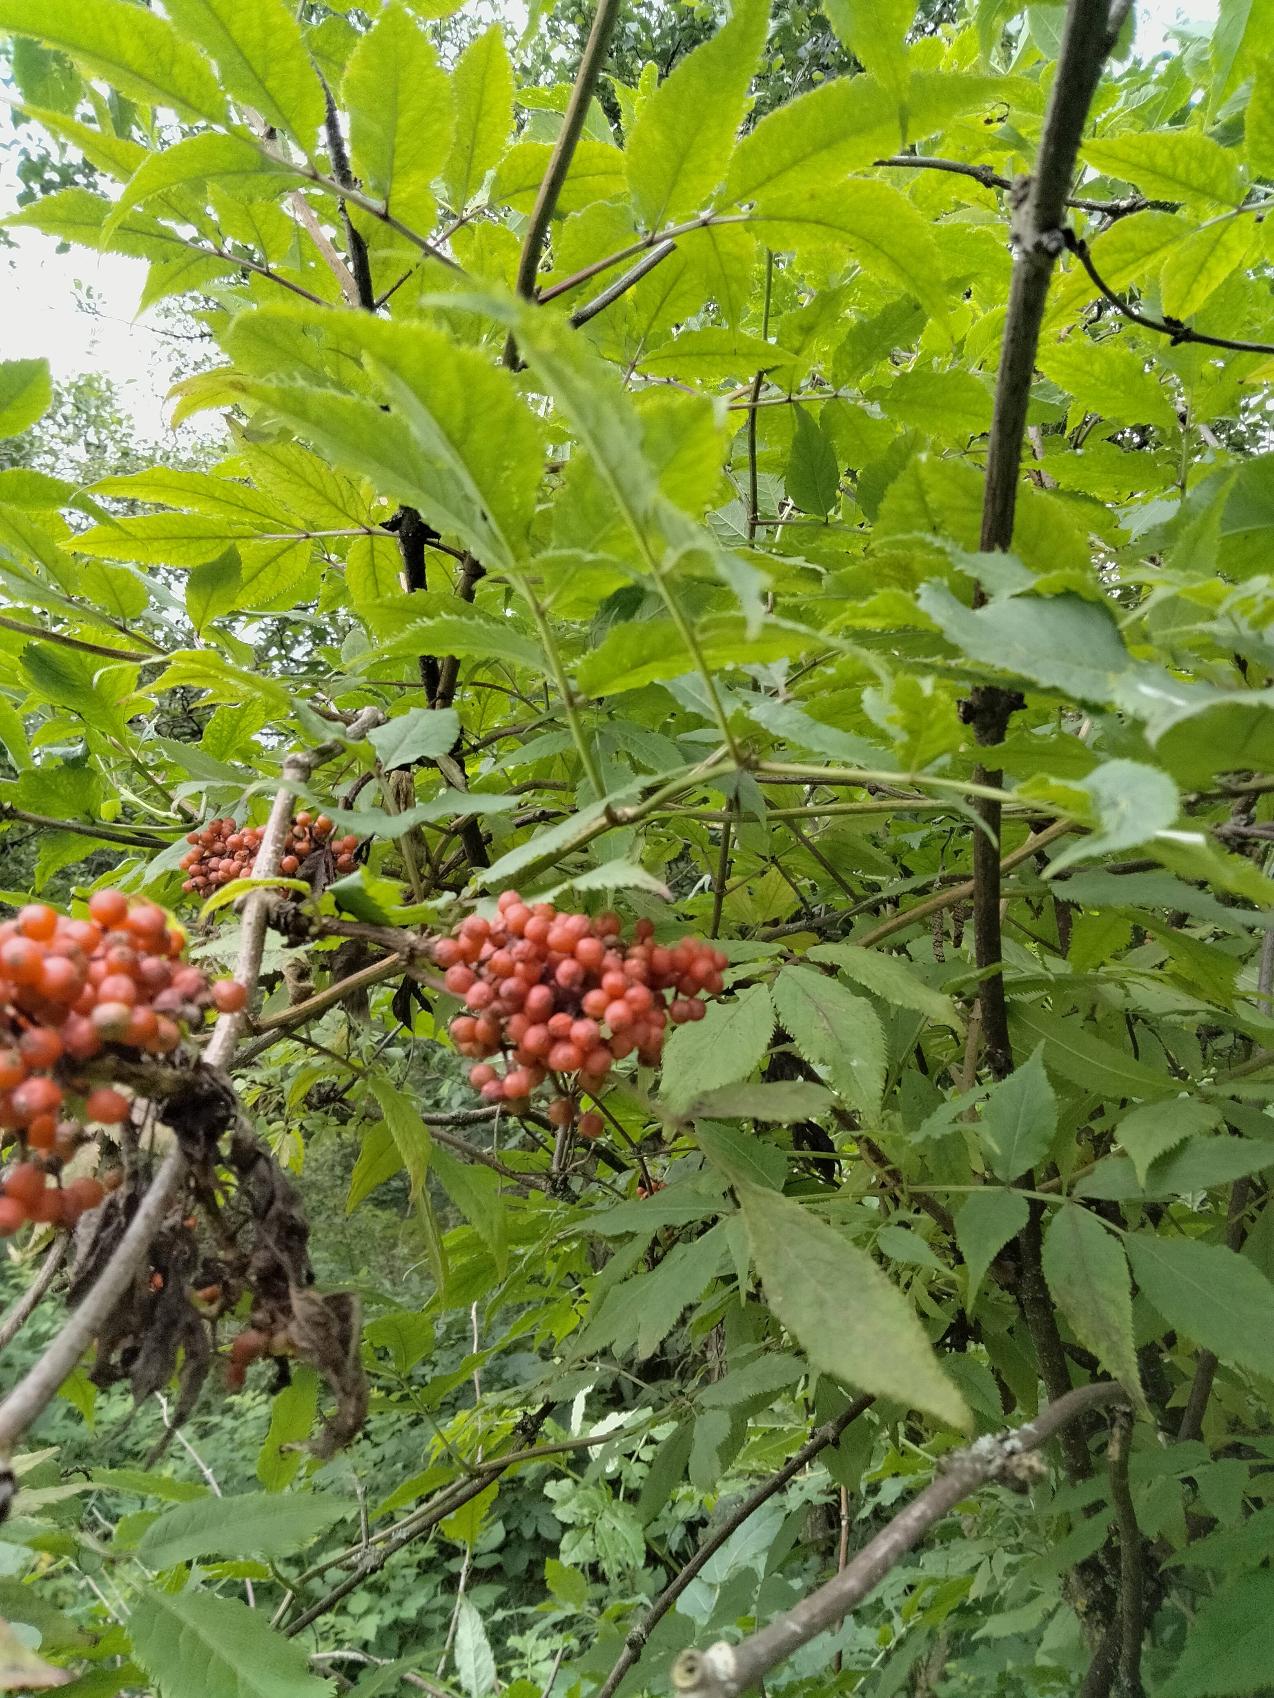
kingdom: Plantae
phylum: Tracheophyta
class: Magnoliopsida
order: Dipsacales
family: Viburnaceae
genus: Sambucus
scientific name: Sambucus racemosa
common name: Drue-hyld
